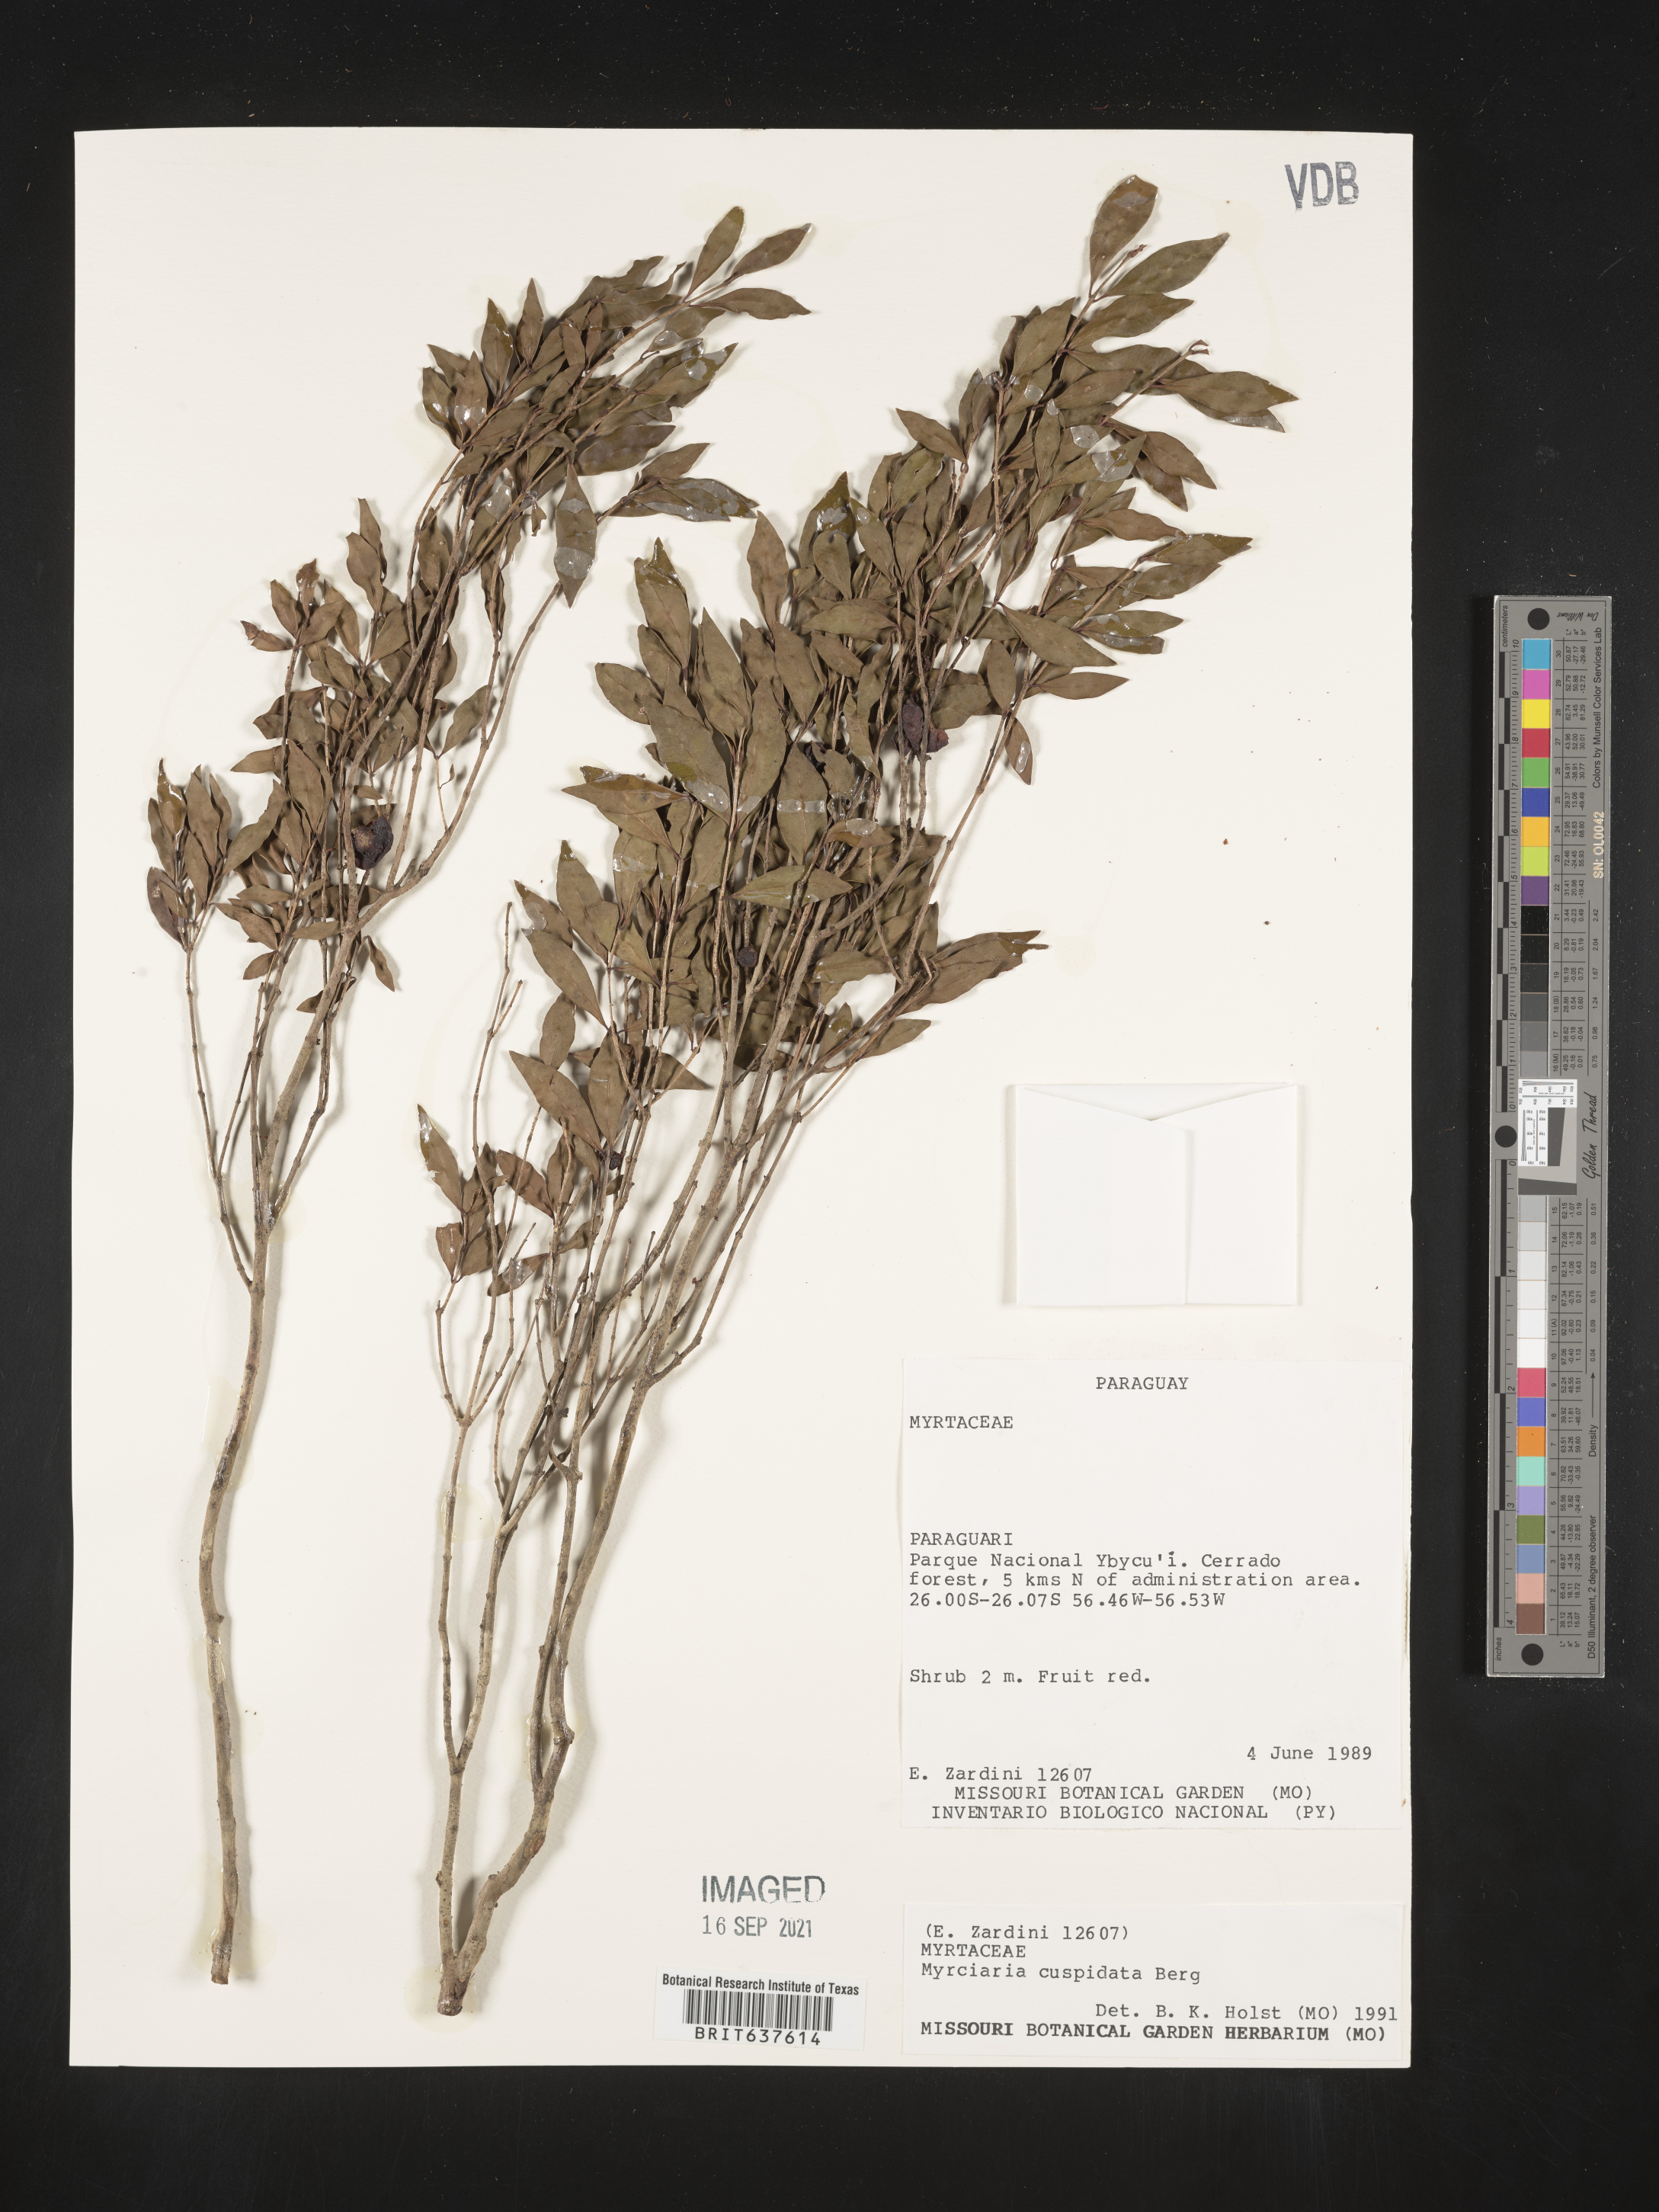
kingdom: Plantae
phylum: Tracheophyta
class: Magnoliopsida
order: Myrtales
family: Myrtaceae
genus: Myrciaria
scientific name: Myrciaria
